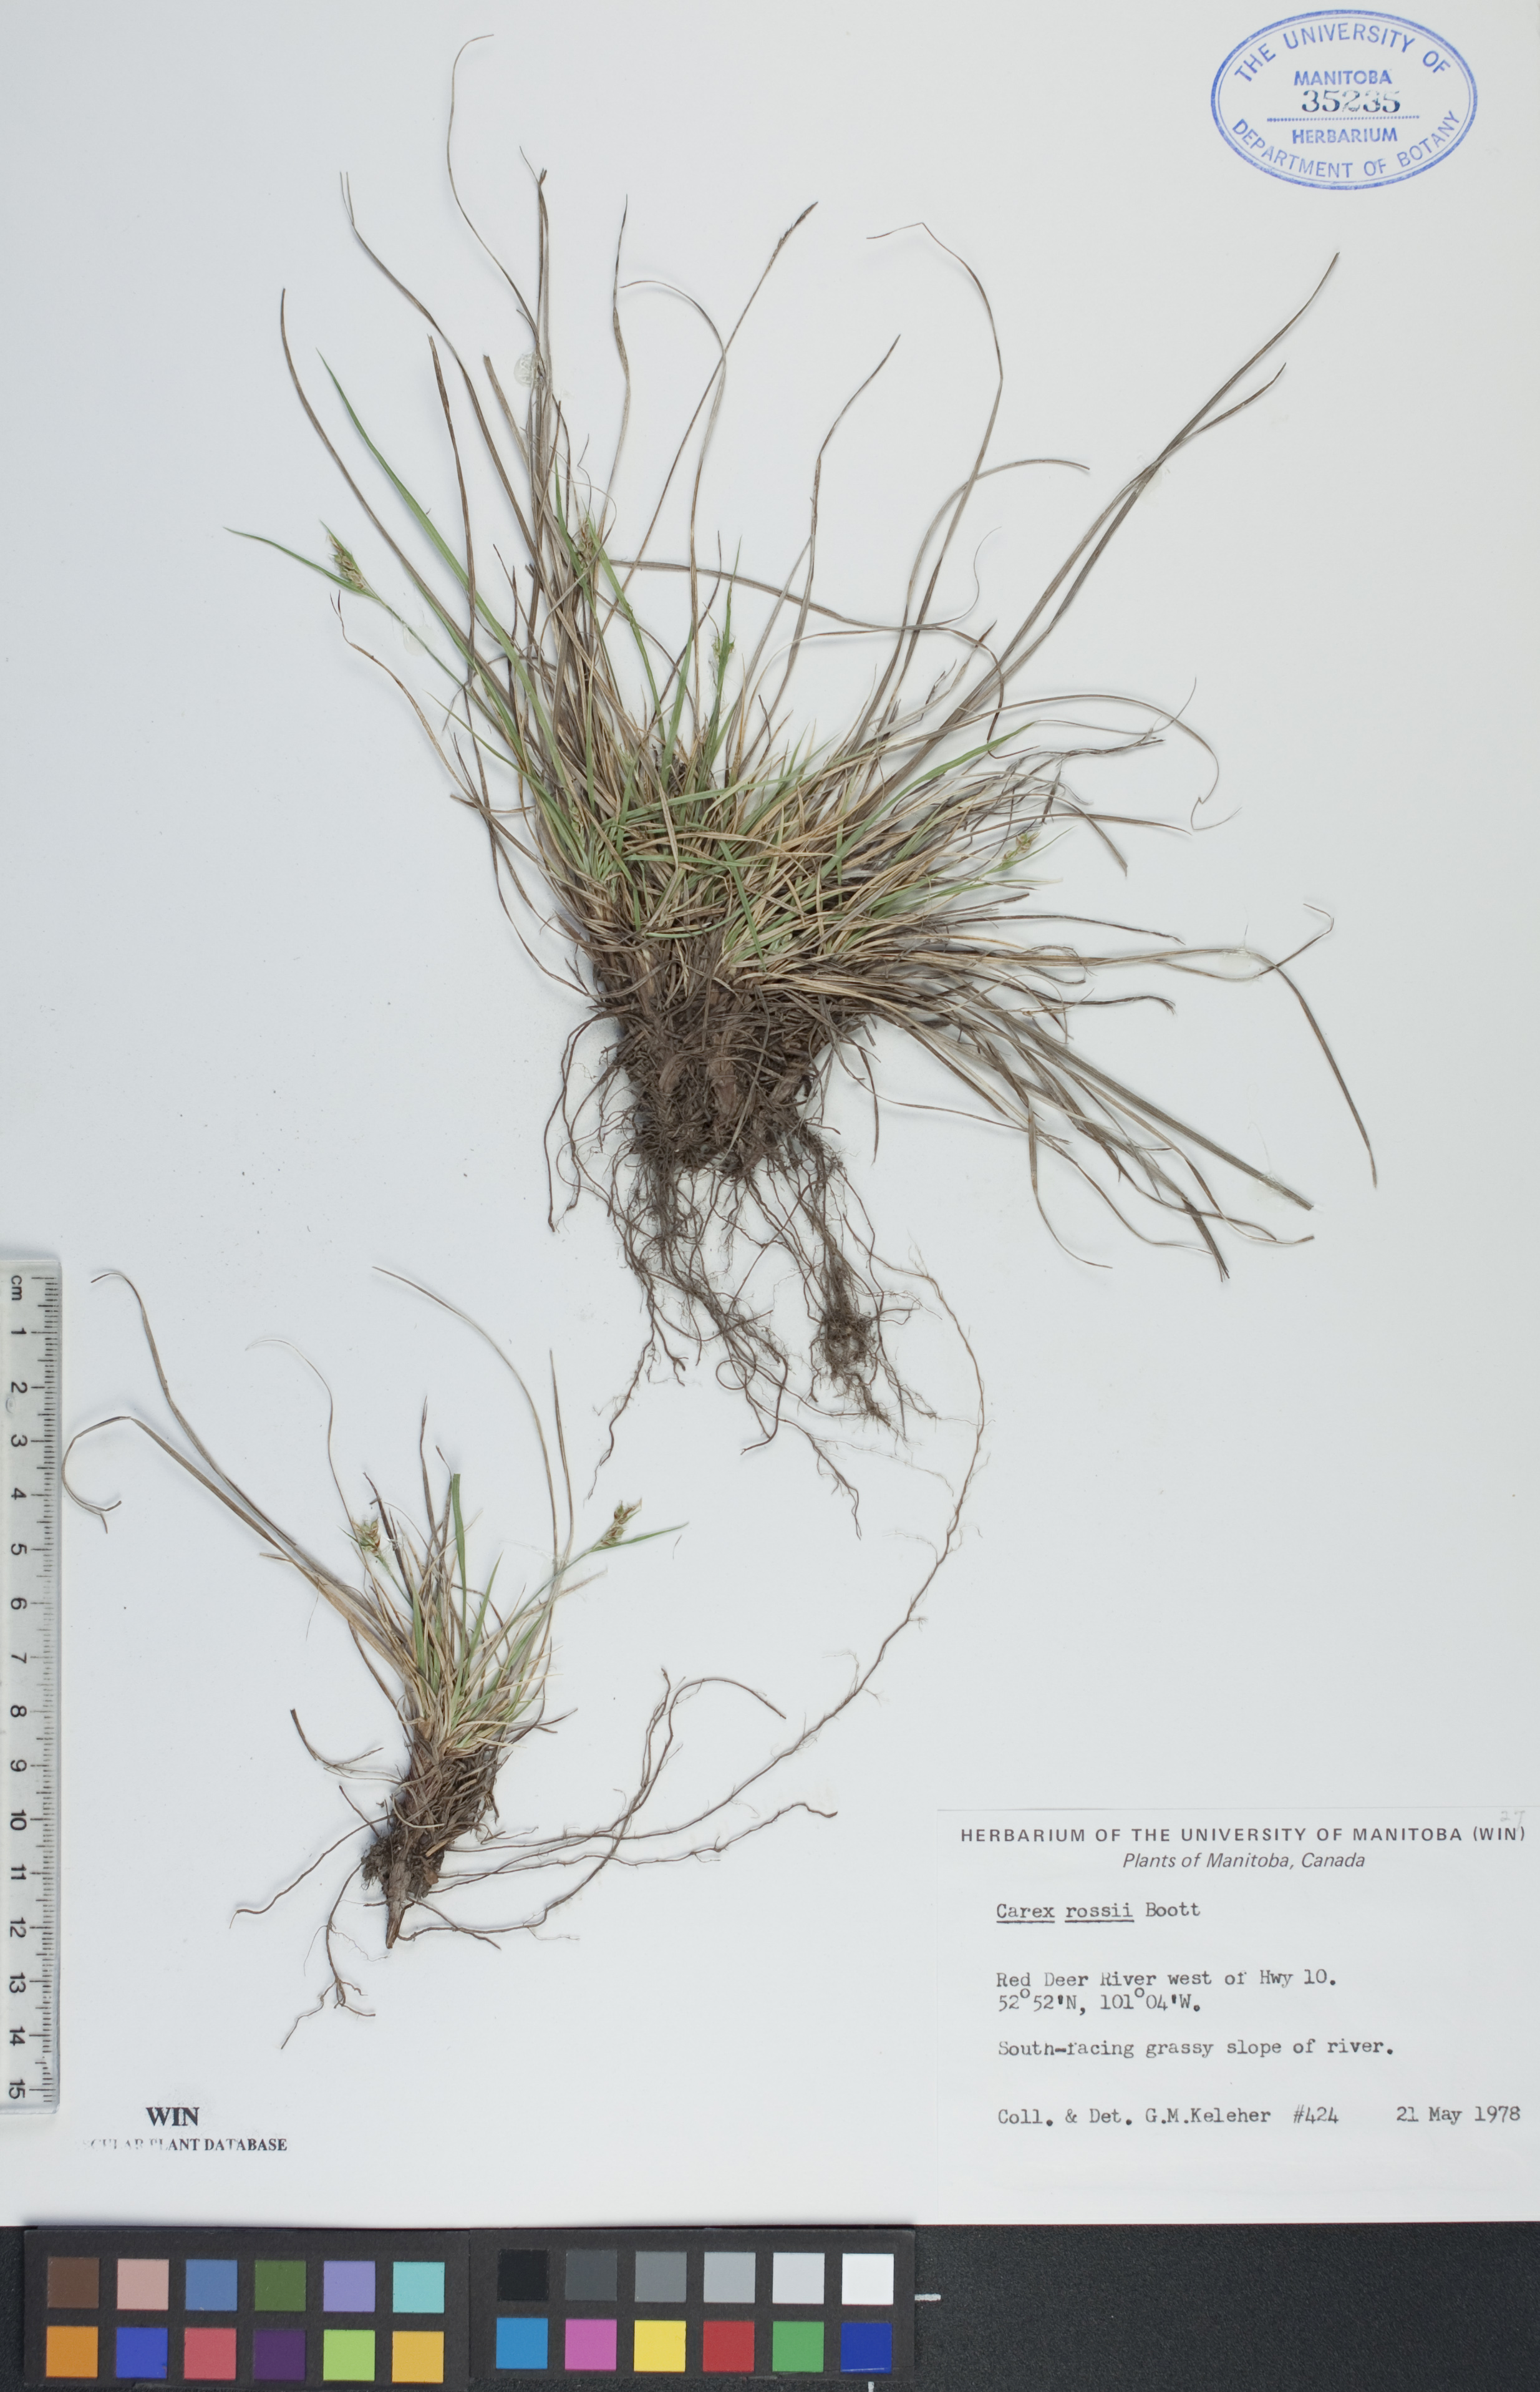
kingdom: Plantae
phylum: Tracheophyta
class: Liliopsida
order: Poales
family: Cyperaceae
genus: Carex
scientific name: Carex rossii
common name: Ross' sedge
